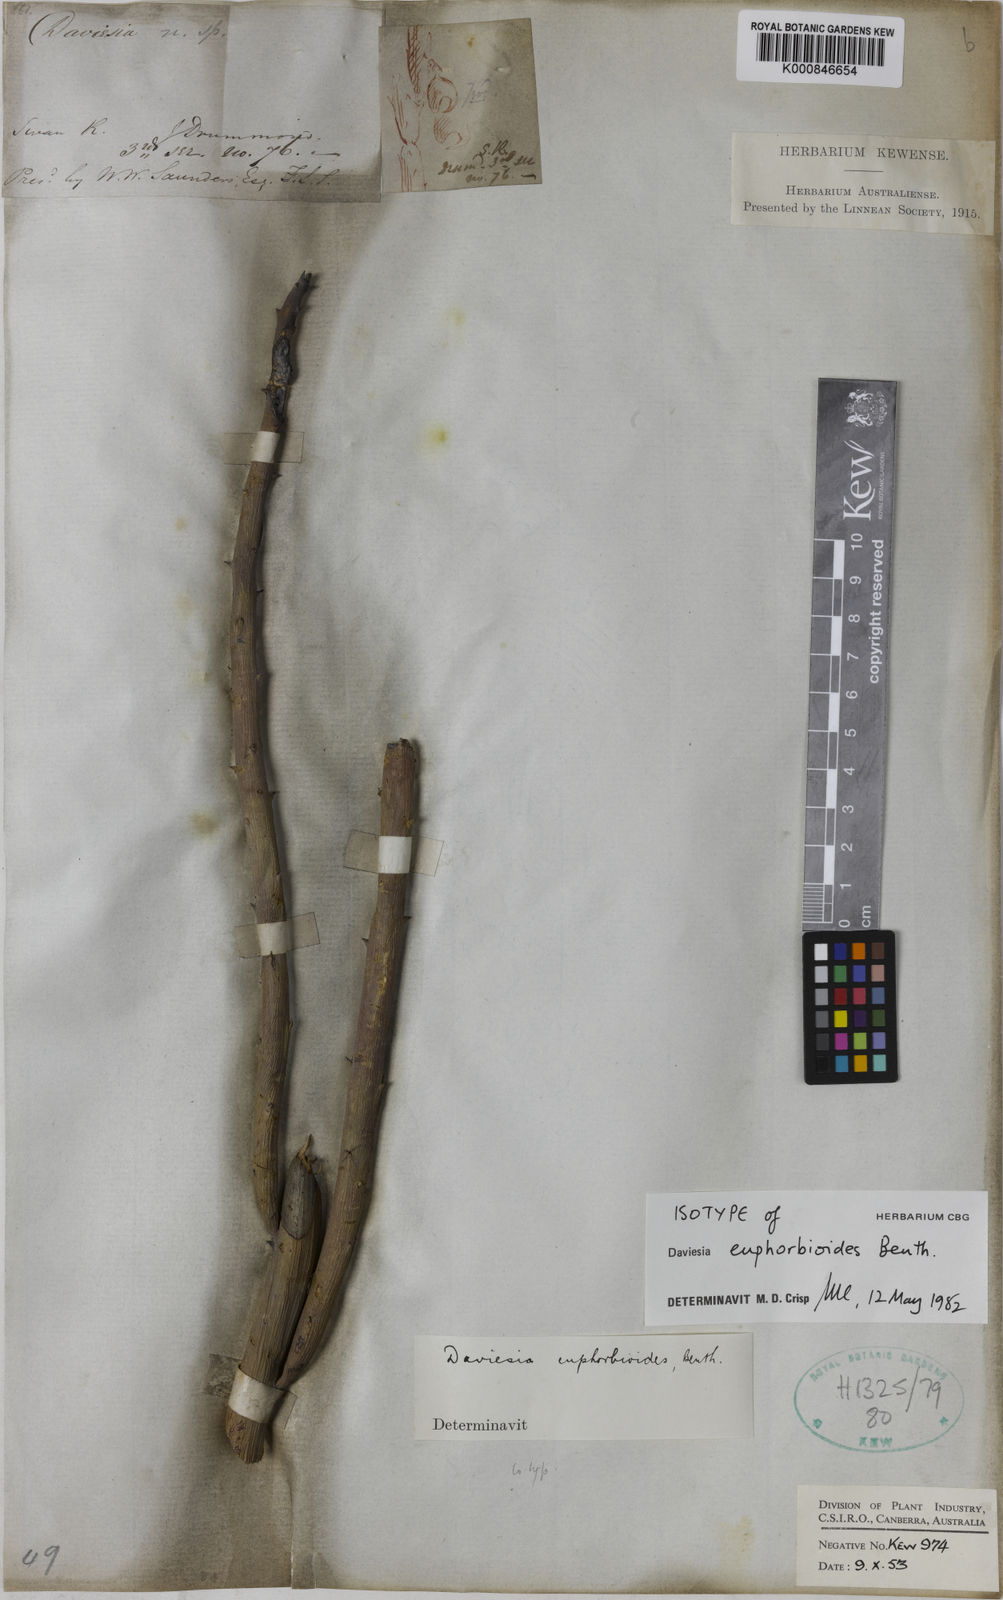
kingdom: Plantae
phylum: Tracheophyta
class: Magnoliopsida
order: Fabales
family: Fabaceae
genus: Daviesia
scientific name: Daviesia euphorbioides
